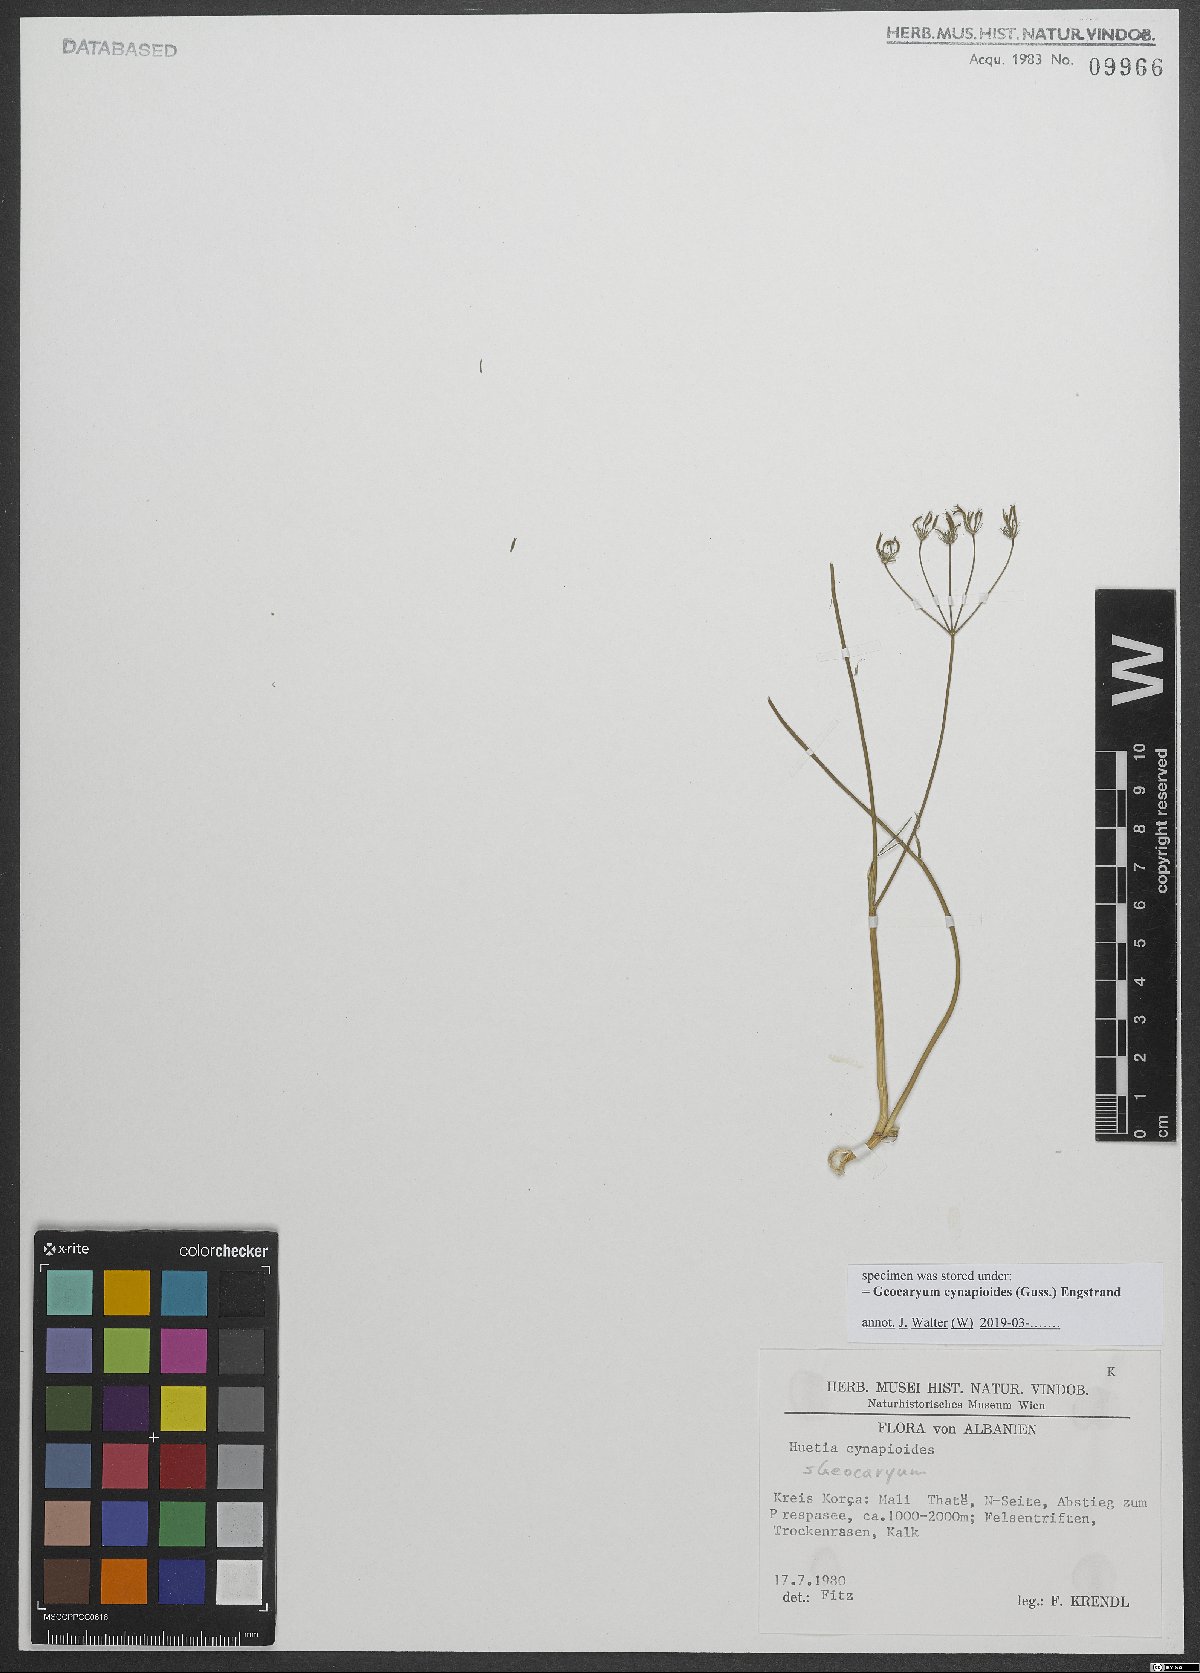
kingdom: Plantae
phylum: Tracheophyta
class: Magnoliopsida
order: Apiales
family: Apiaceae
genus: Geocaryum
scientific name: Geocaryum cynapioides
